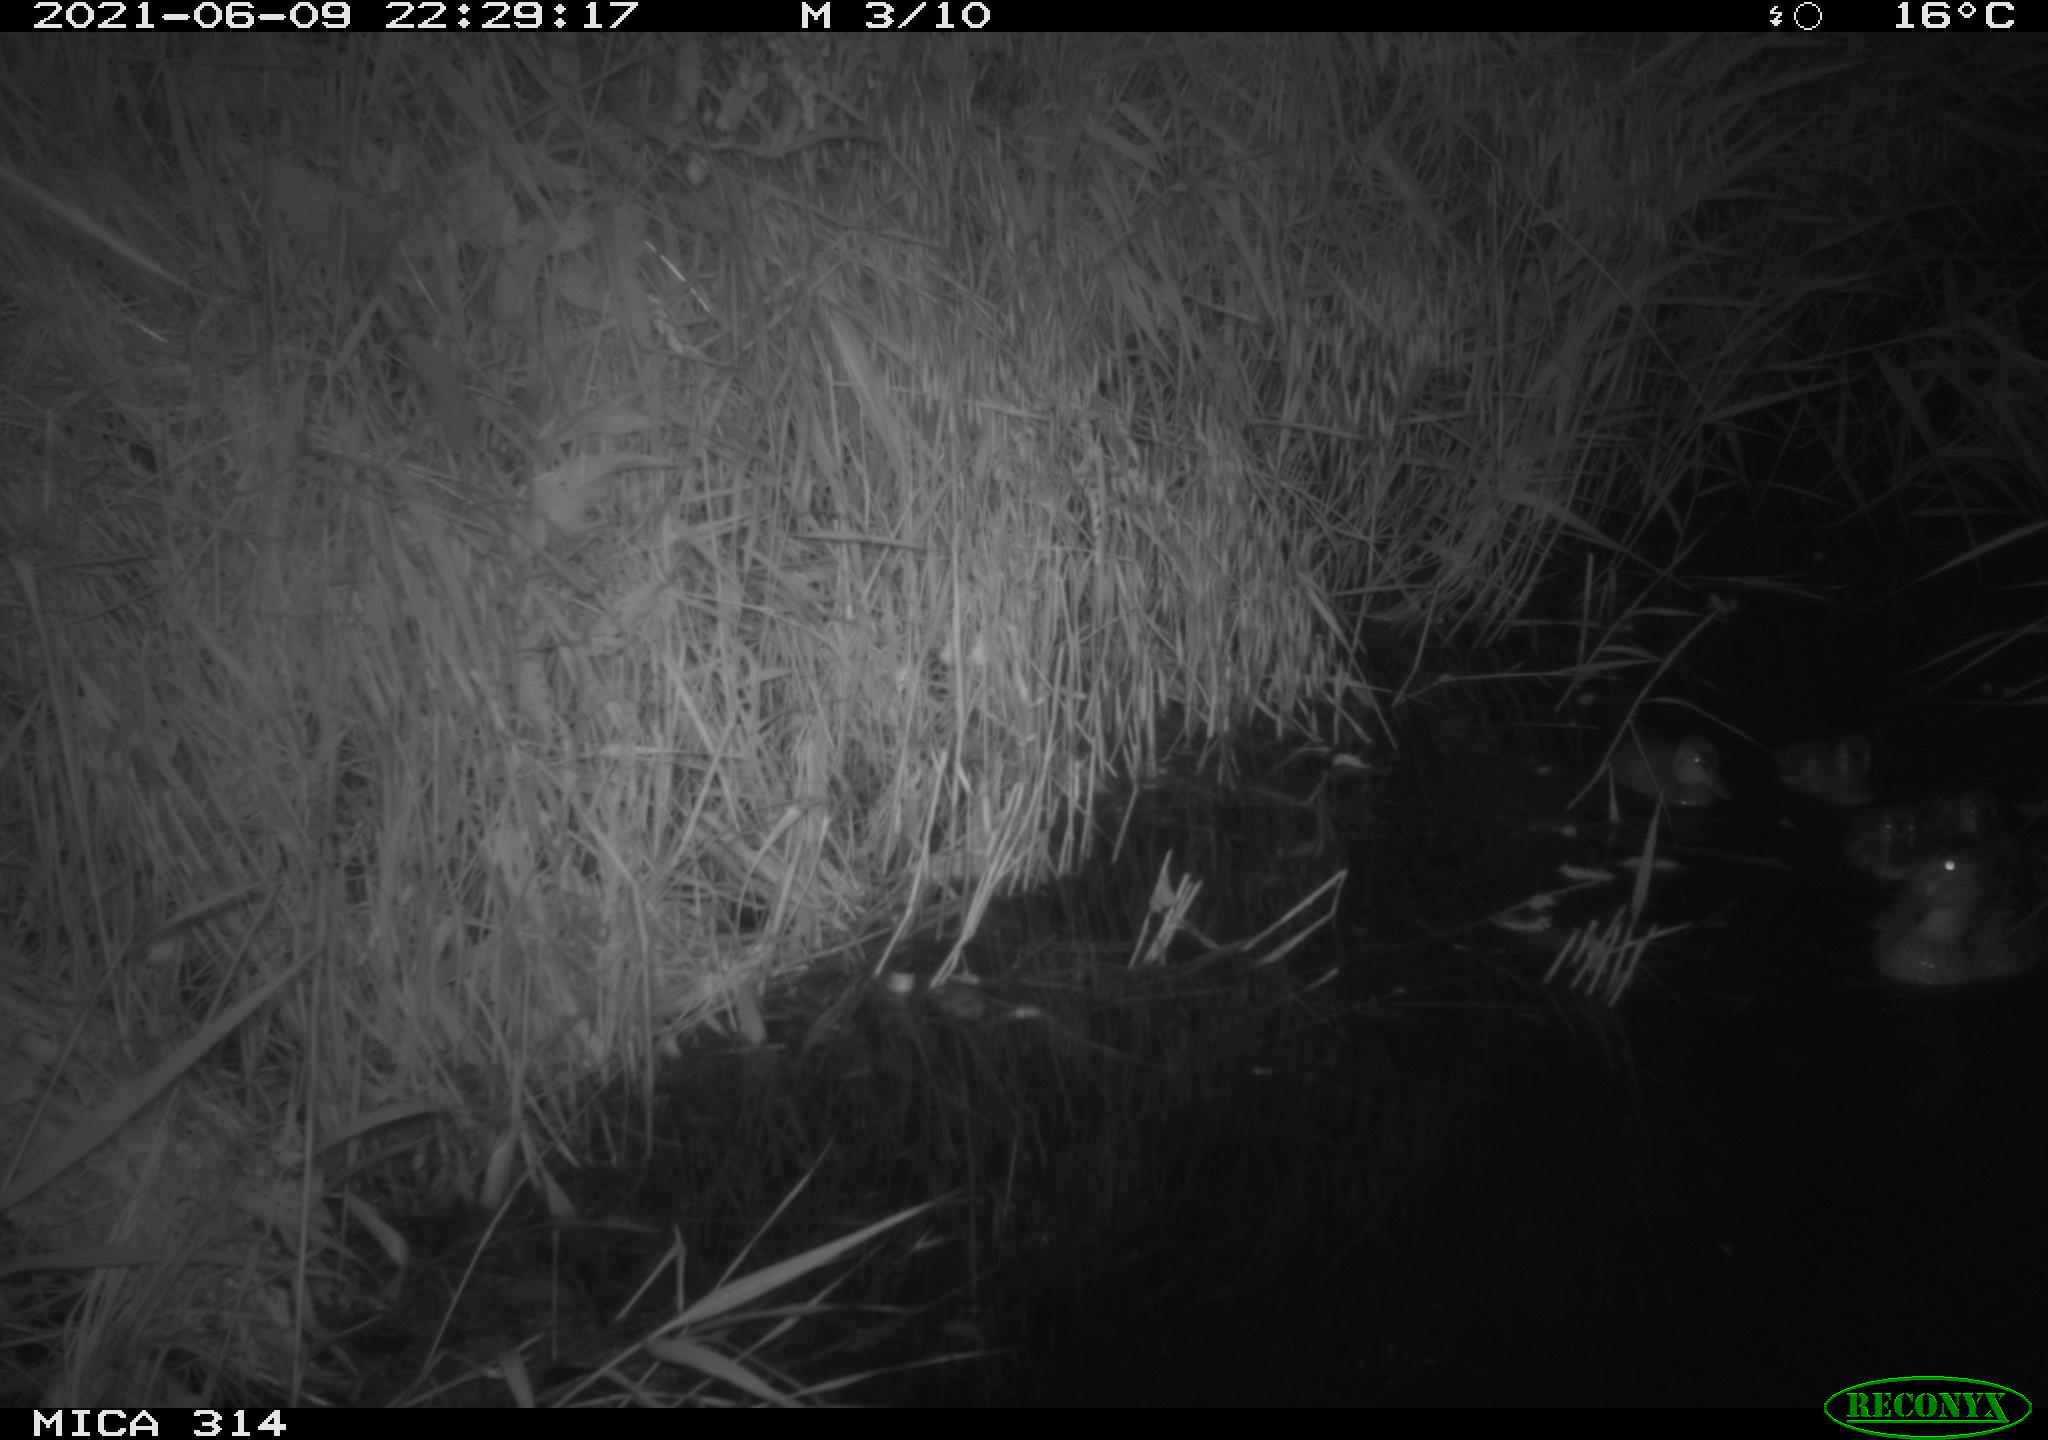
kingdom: Animalia
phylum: Chordata
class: Aves
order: Anseriformes
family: Anatidae
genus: Mareca
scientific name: Mareca strepera
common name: Gadwall
